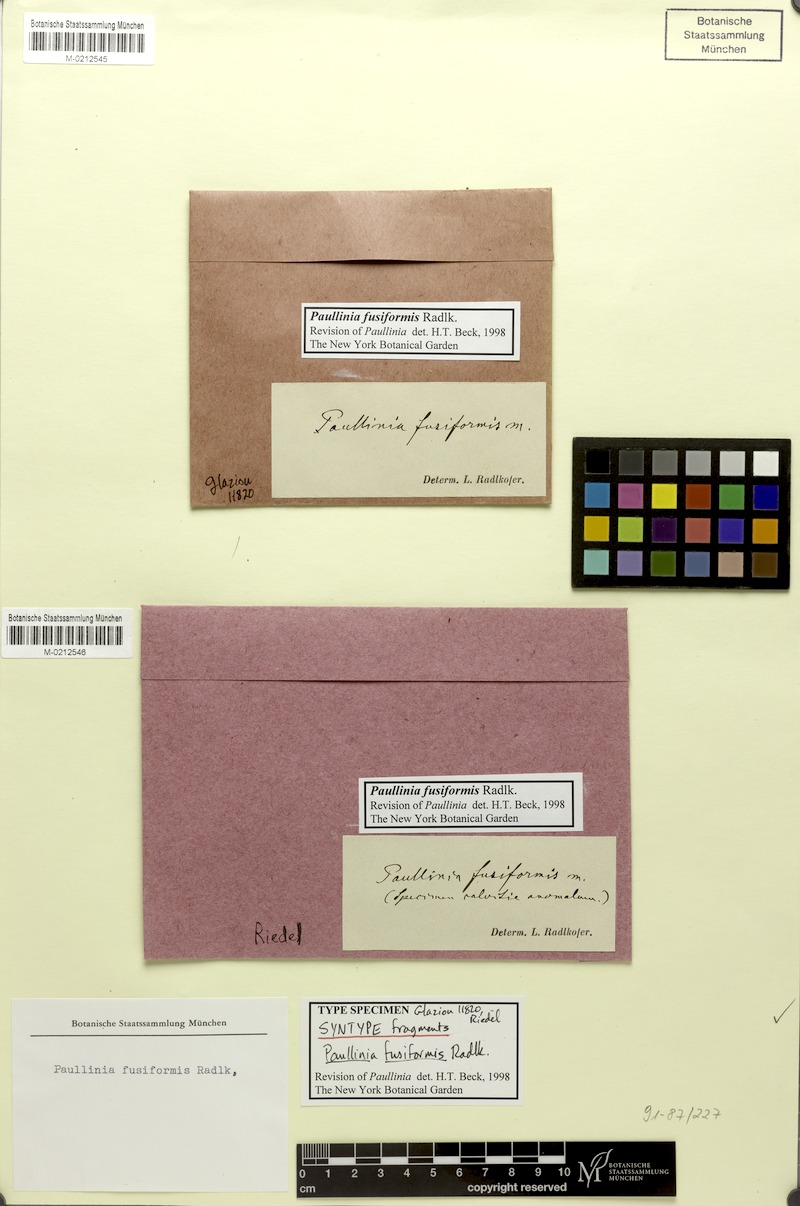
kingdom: Plantae
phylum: Tracheophyta
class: Magnoliopsida
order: Sapindales
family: Sapindaceae
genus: Paullinia
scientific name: Paullinia fusiformis
